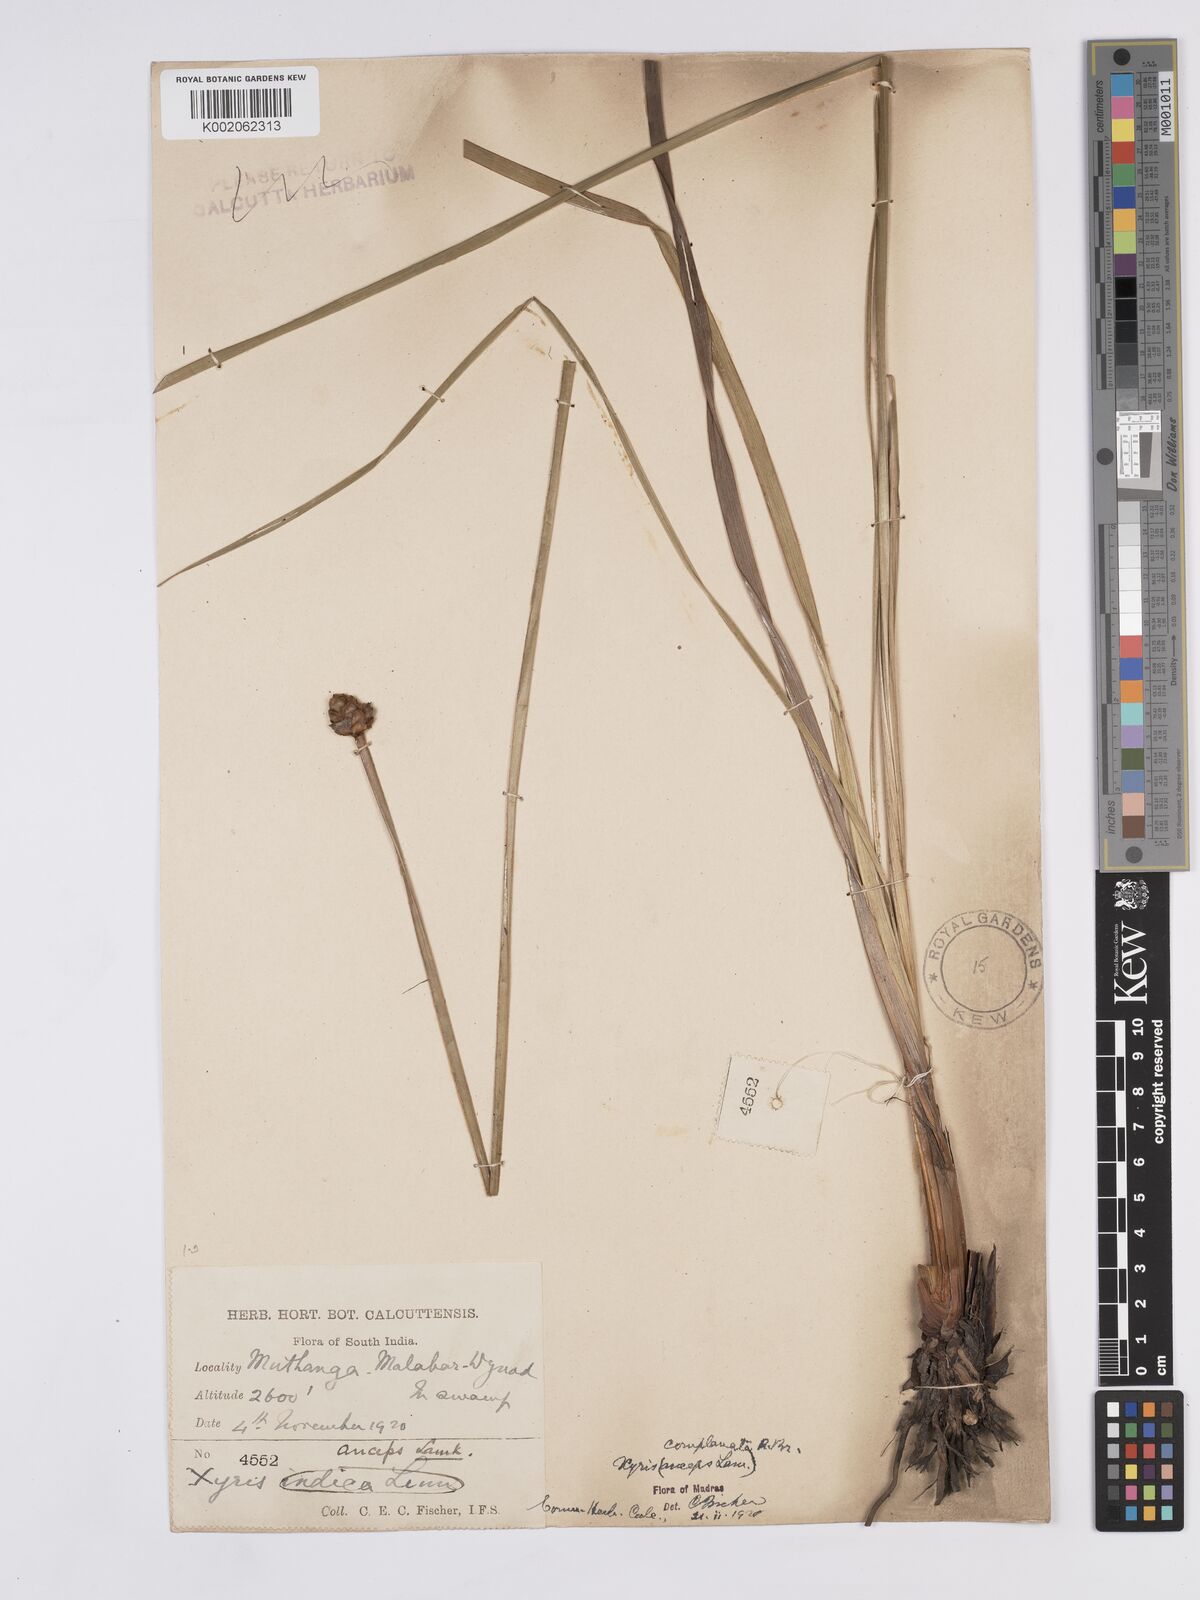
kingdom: Plantae
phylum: Tracheophyta
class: Liliopsida
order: Poales
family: Xyridaceae
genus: Xyris
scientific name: Xyris complanata
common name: Hawai'i yelloweyed grass
